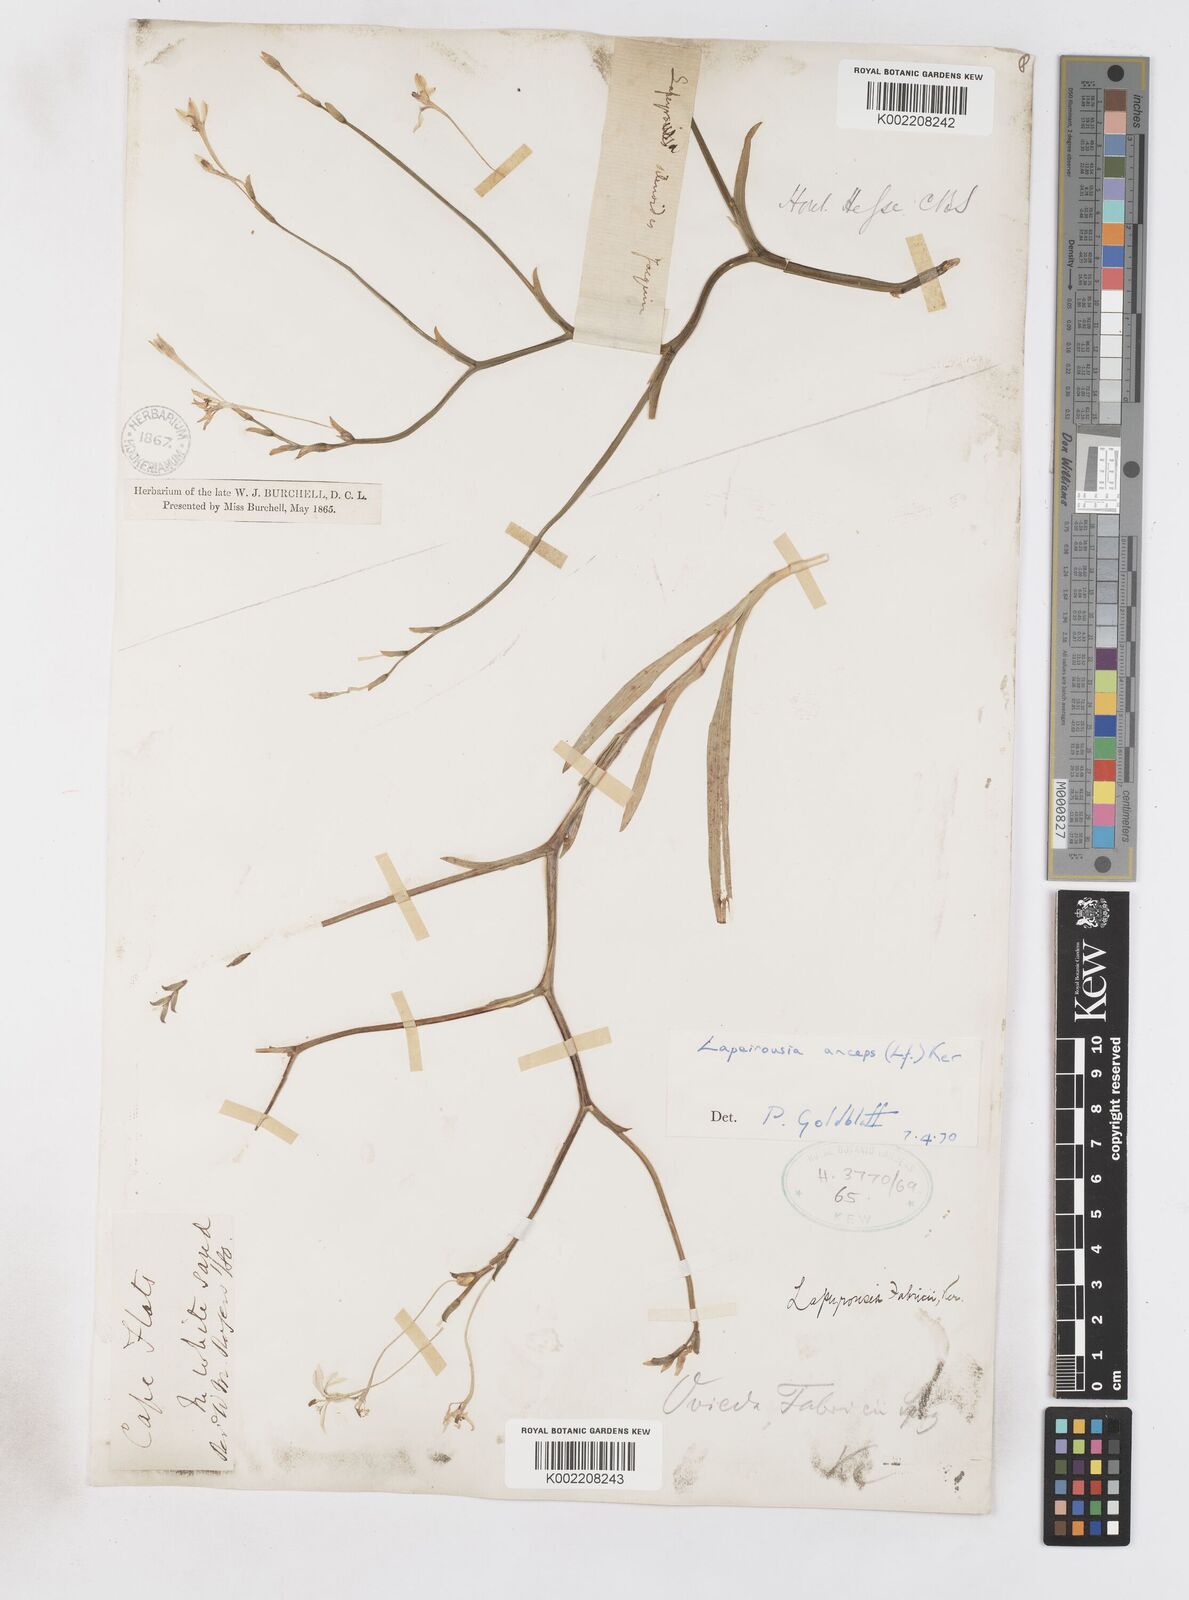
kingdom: Plantae
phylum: Tracheophyta
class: Liliopsida
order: Asparagales
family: Iridaceae
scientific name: Iridaceae
